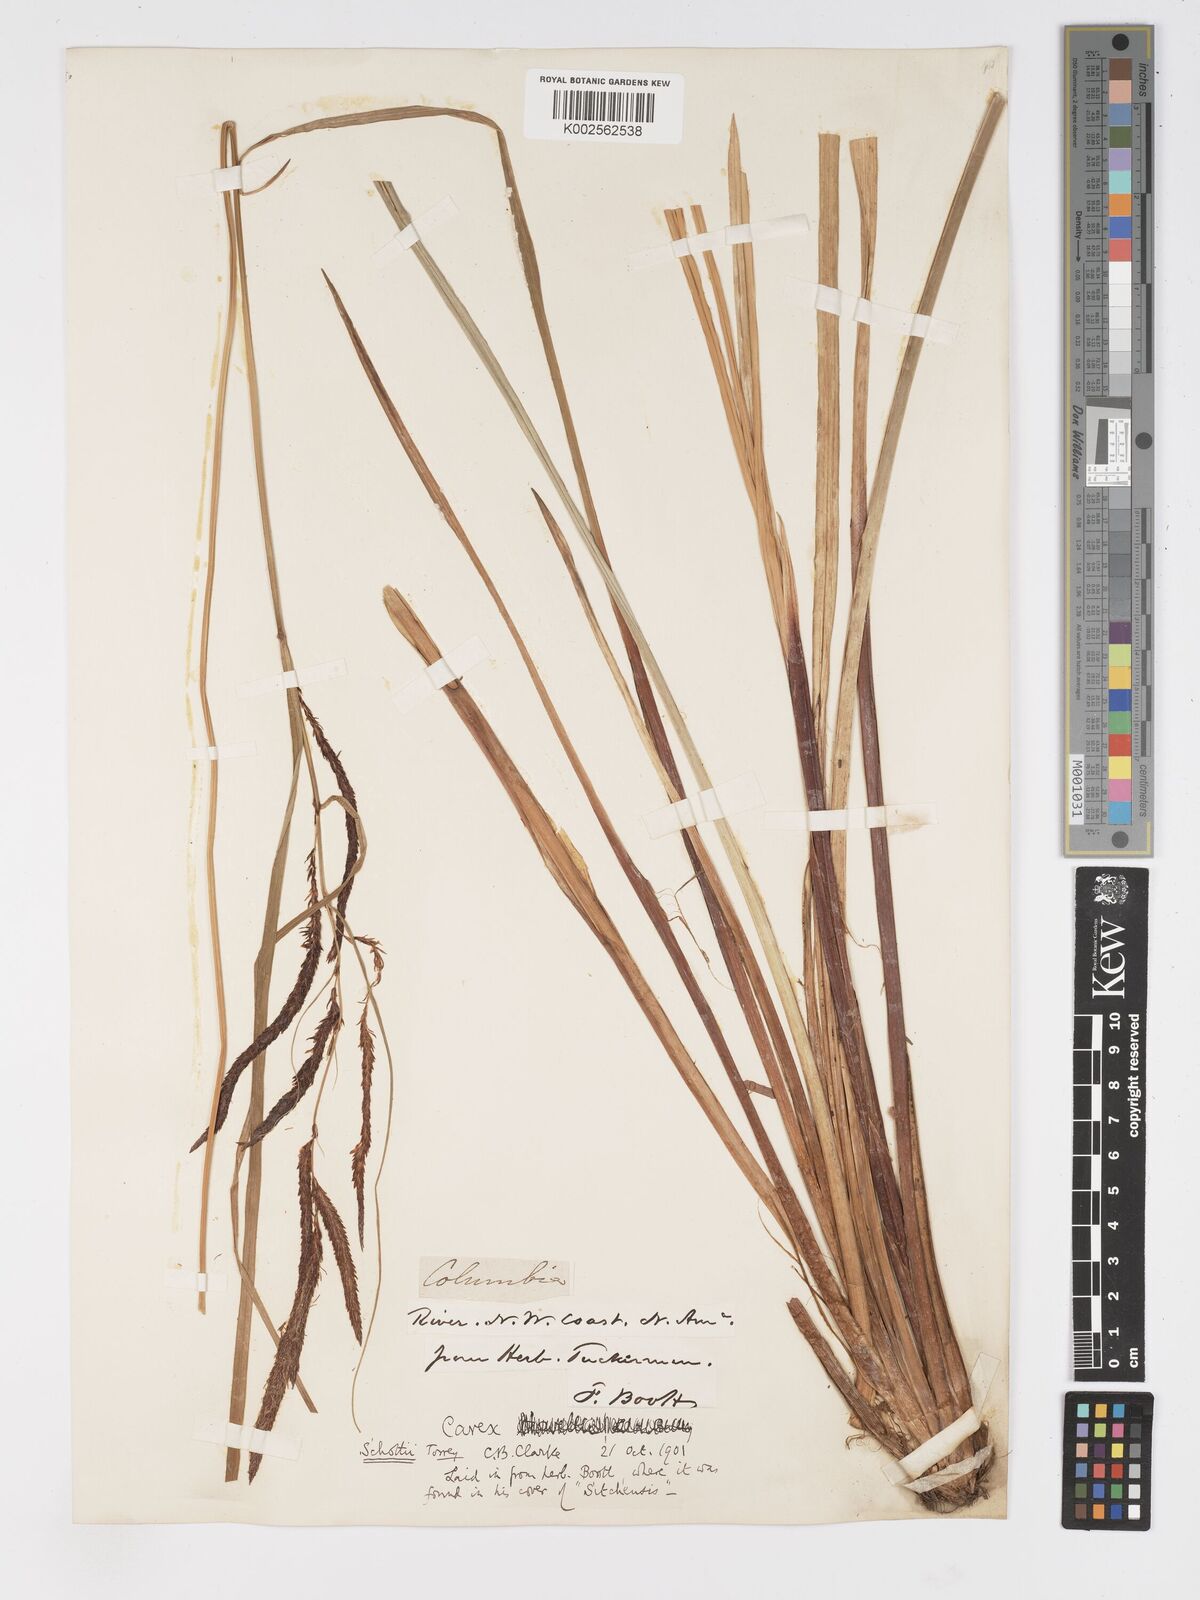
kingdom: Plantae
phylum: Tracheophyta
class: Liliopsida
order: Poales
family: Cyperaceae
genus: Carex
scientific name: Carex schottii
